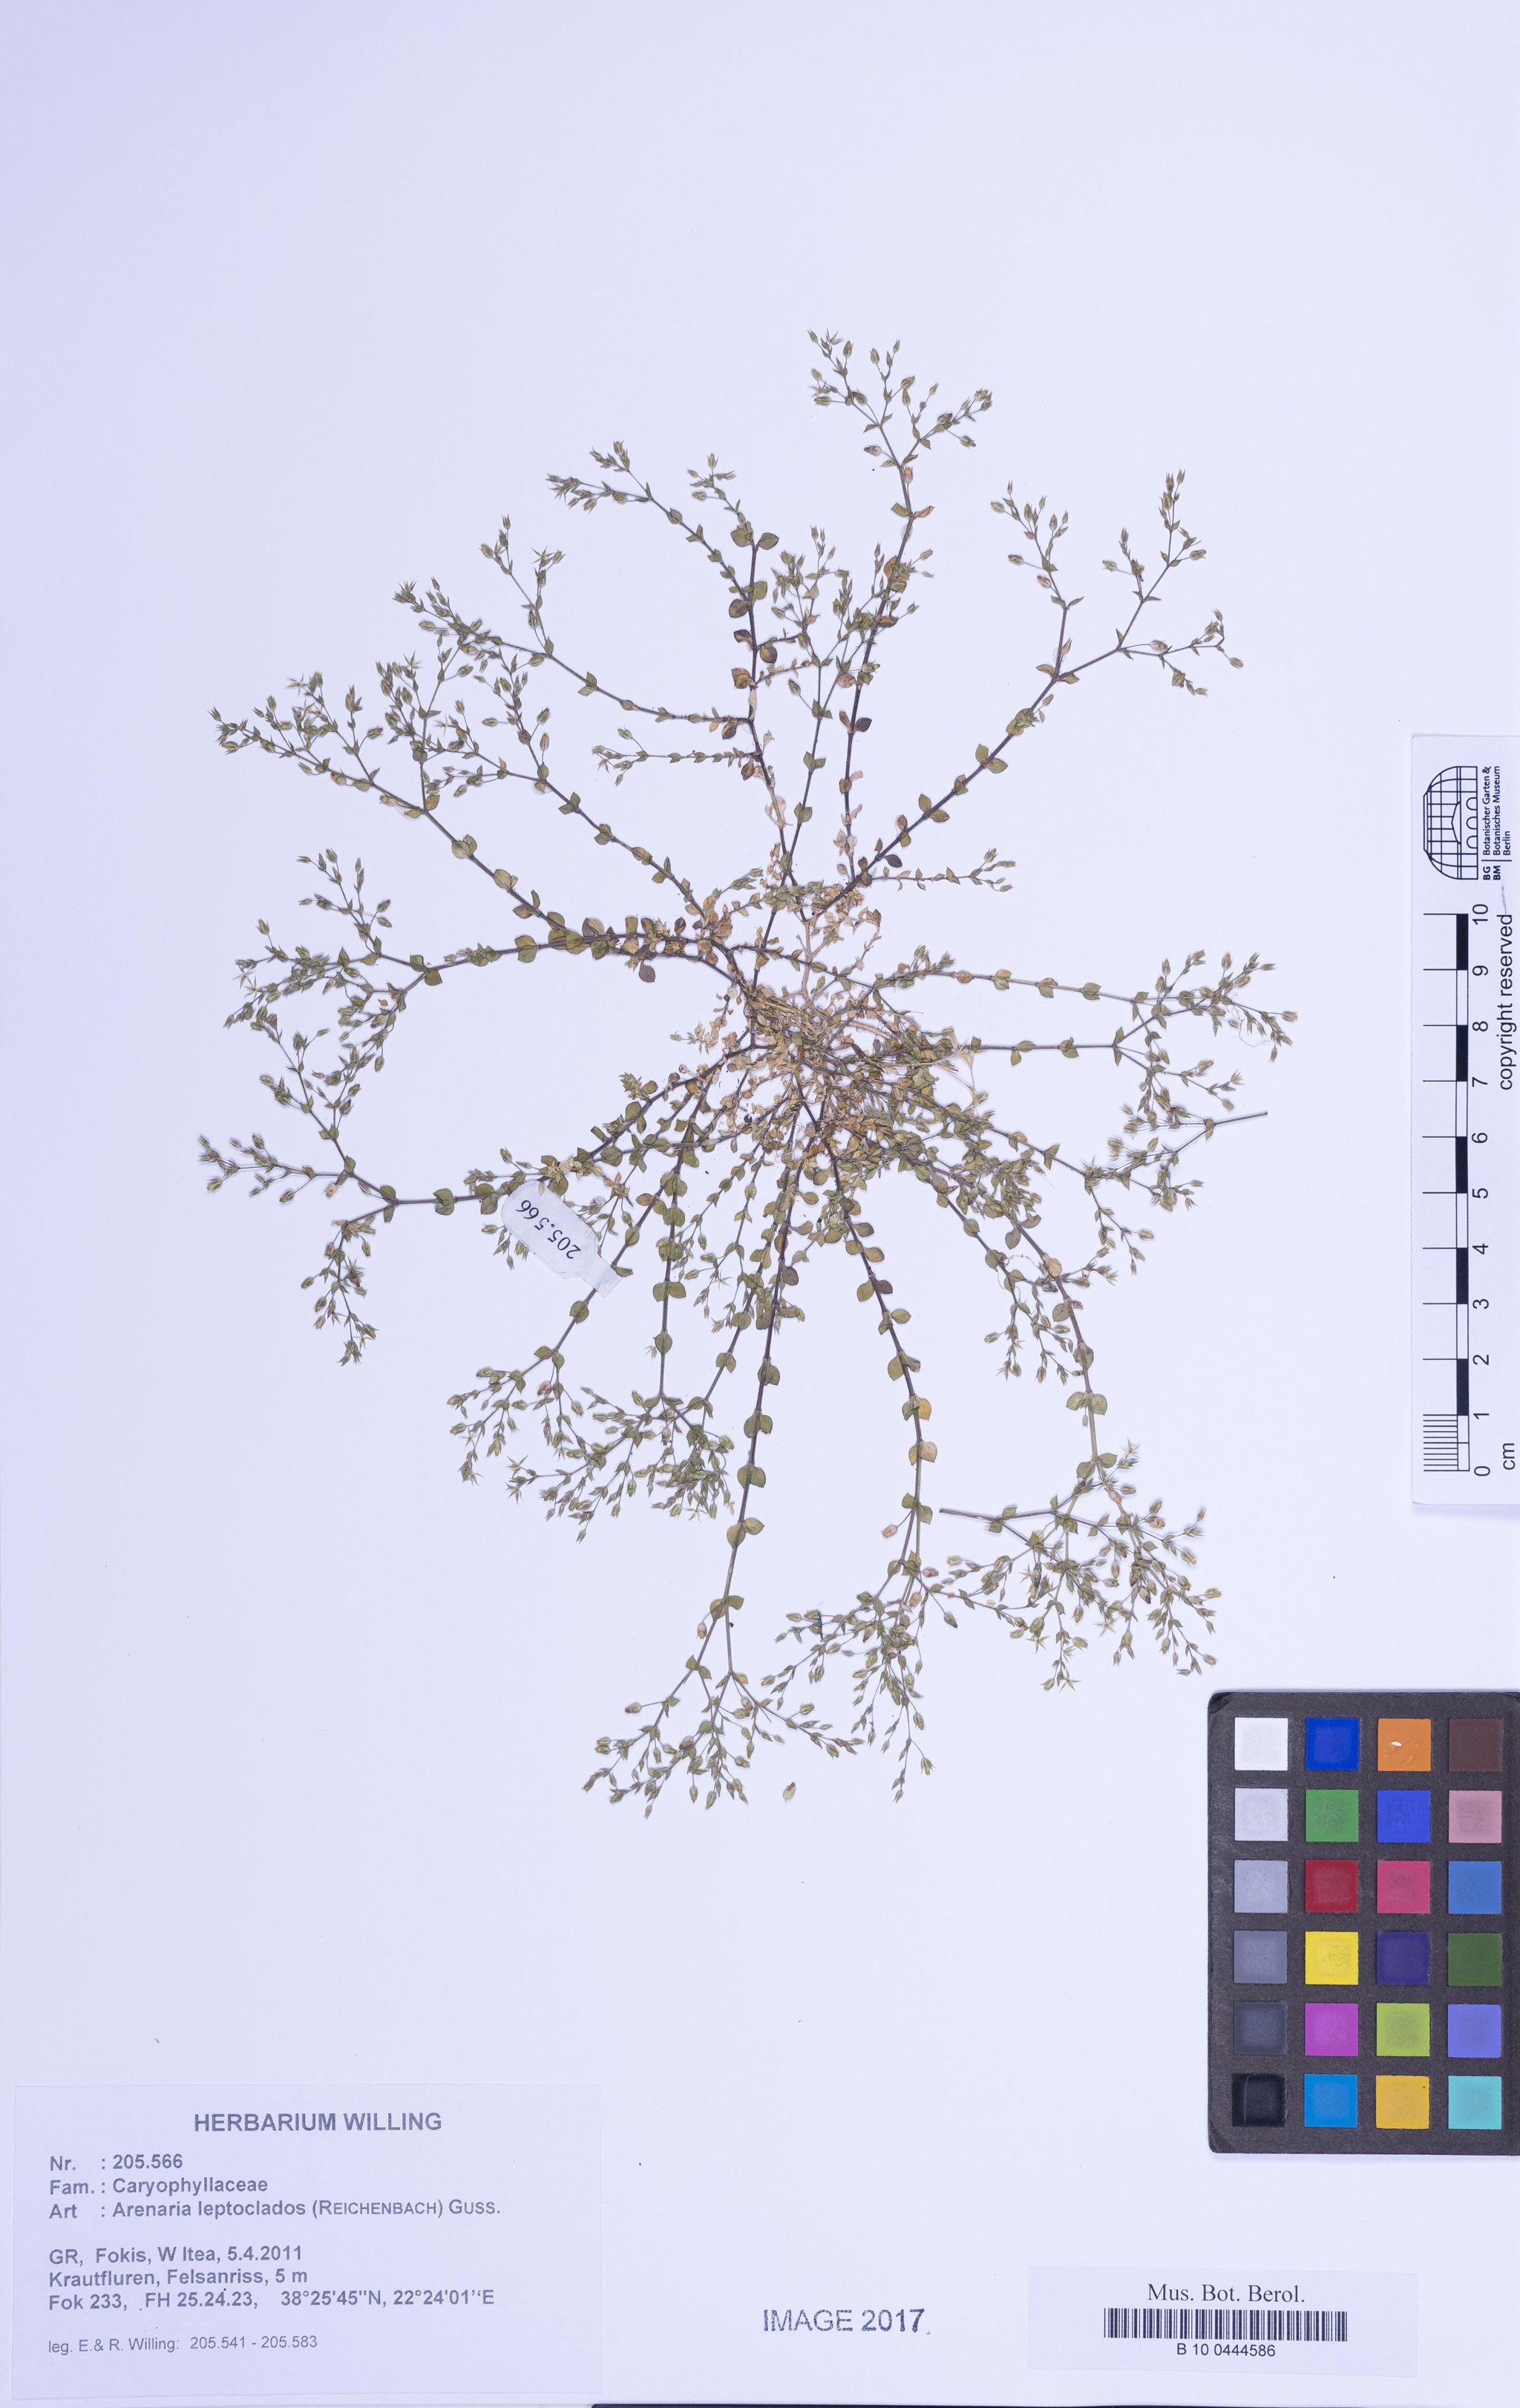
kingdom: Plantae
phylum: Tracheophyta
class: Magnoliopsida
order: Caryophyllales
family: Caryophyllaceae
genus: Arenaria
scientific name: Arenaria leptoclados
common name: Thyme-leaved sandwort
